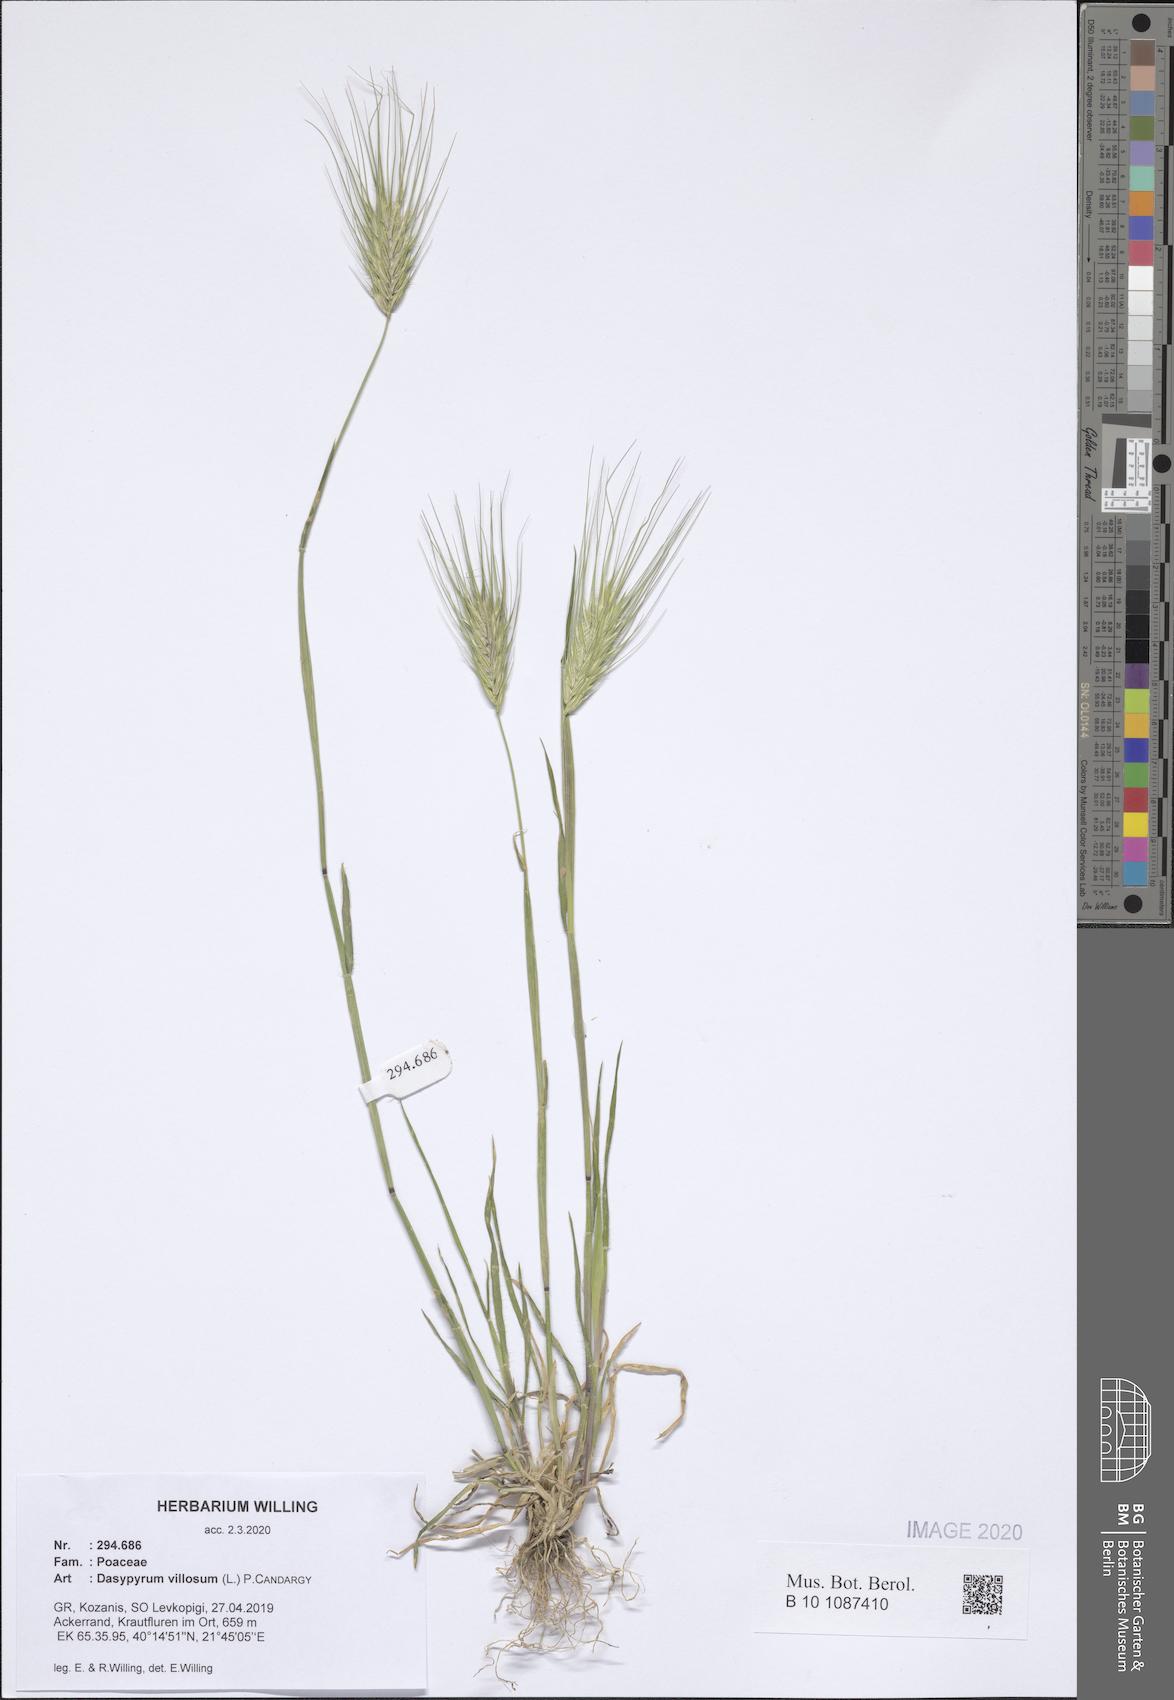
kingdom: Plantae
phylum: Tracheophyta
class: Liliopsida
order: Poales
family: Poaceae
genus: Dasypyrum
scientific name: Dasypyrum villosum
